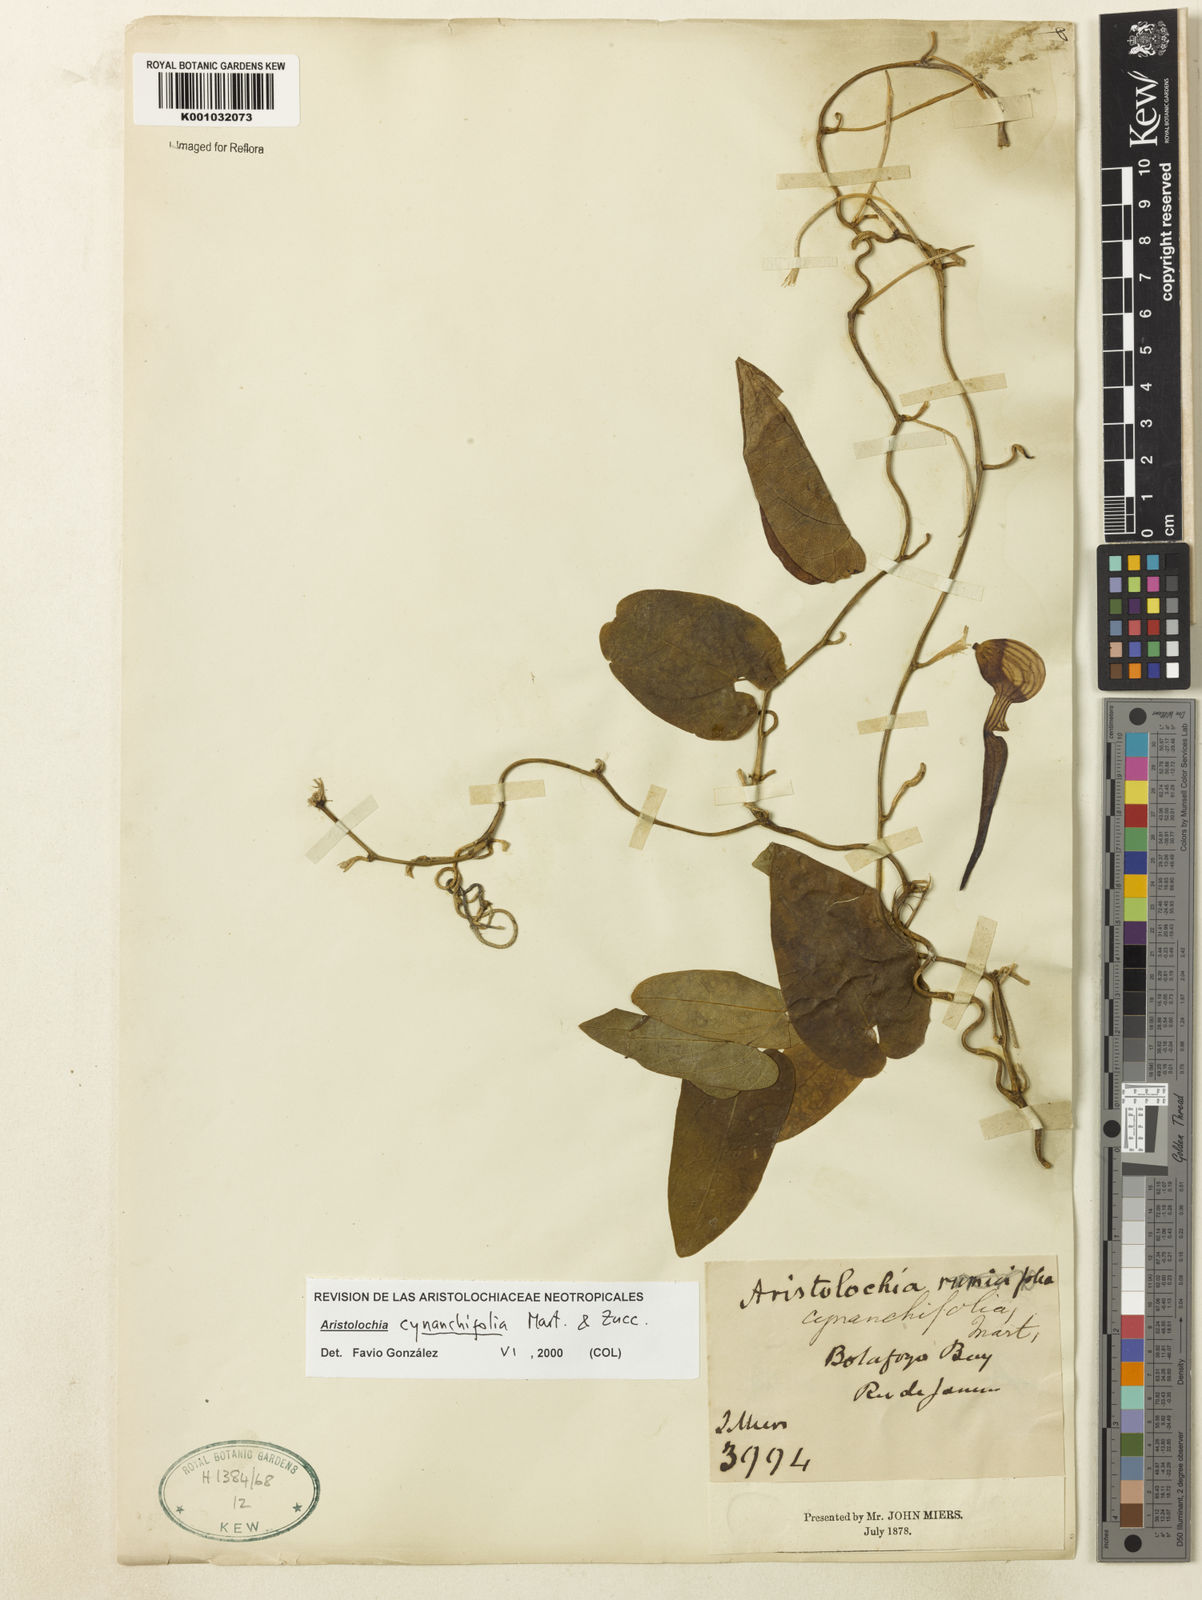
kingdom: Plantae
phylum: Tracheophyta
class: Magnoliopsida
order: Piperales
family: Aristolochiaceae
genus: Aristolochia
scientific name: Aristolochia cynanchifolia
